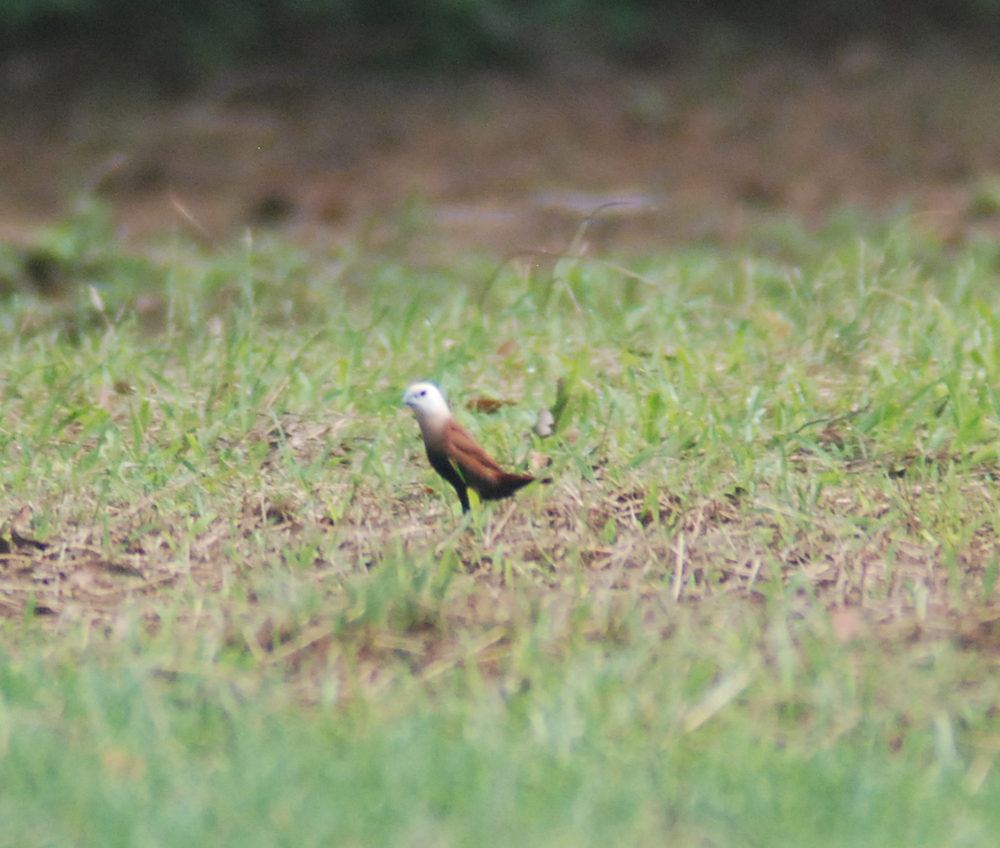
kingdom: Animalia
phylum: Chordata
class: Aves
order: Passeriformes
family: Estrildidae
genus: Lonchura
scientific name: Lonchura maja
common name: White-headed munia
